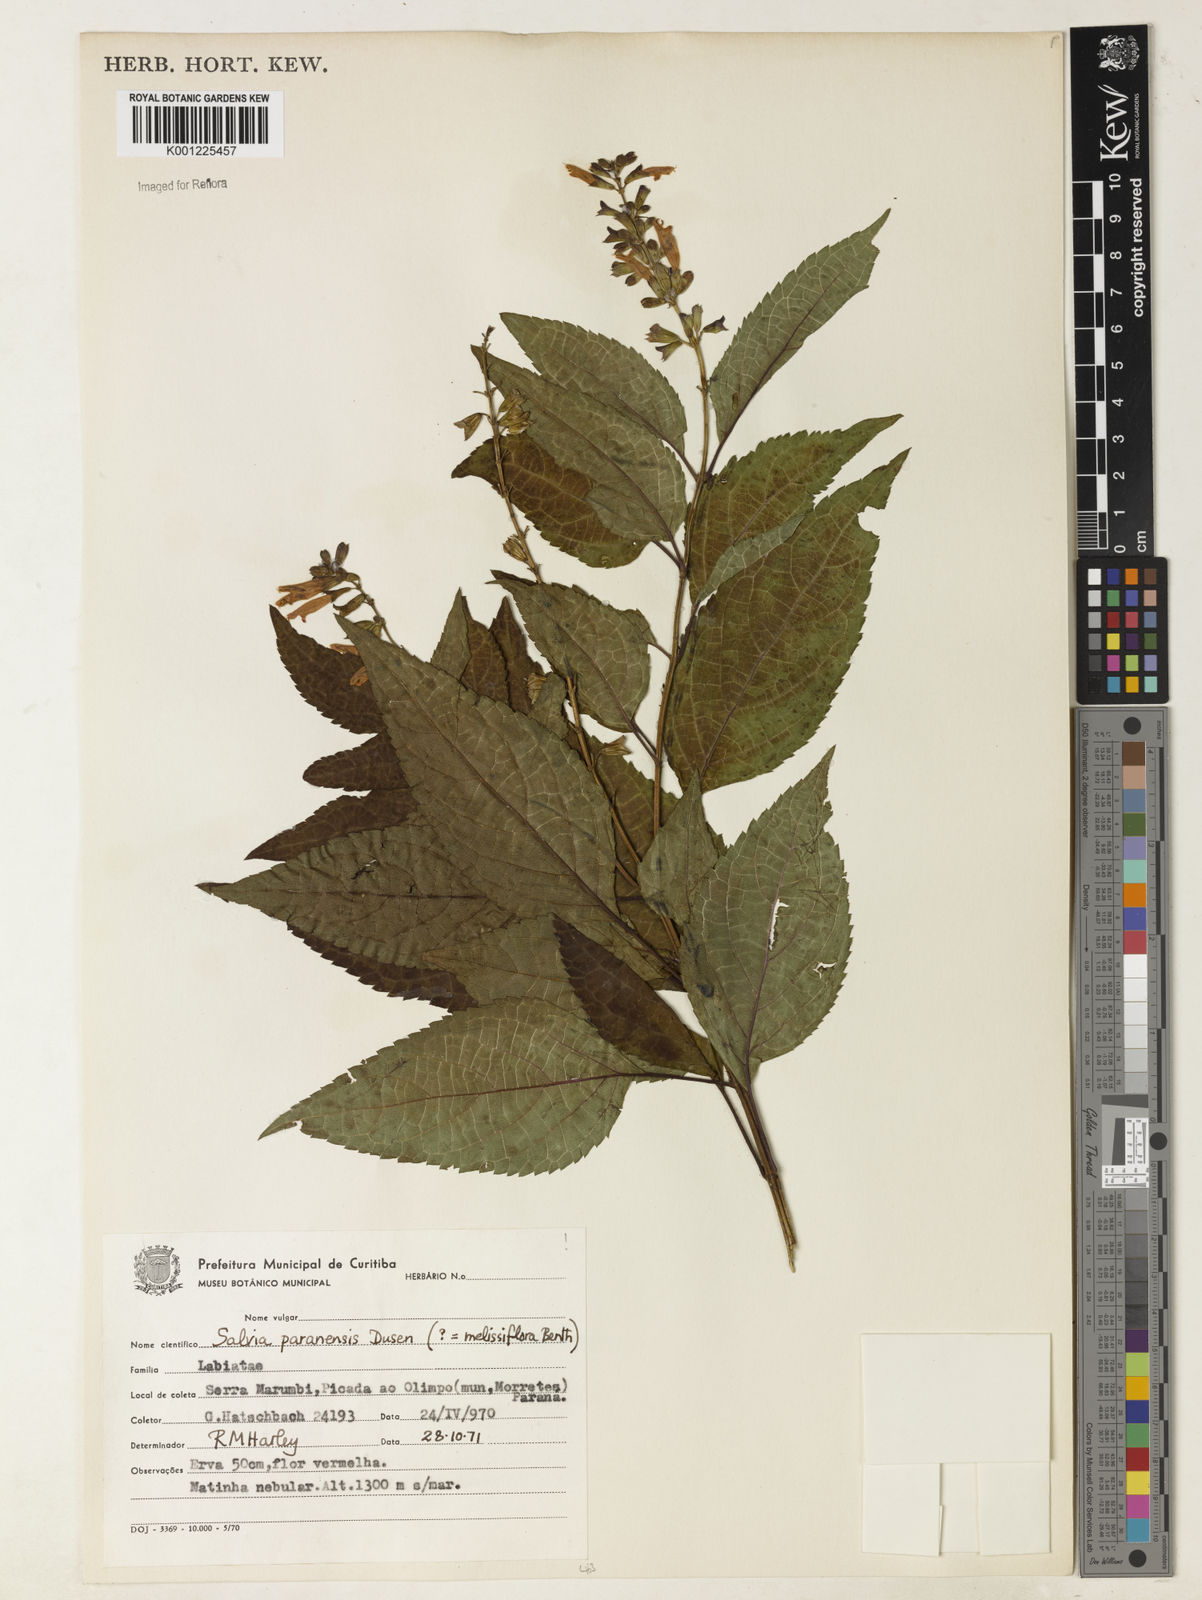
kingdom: Plantae
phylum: Tracheophyta
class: Magnoliopsida
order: Lamiales
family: Lamiaceae
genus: Salvia
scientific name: Salvia melissiflora
